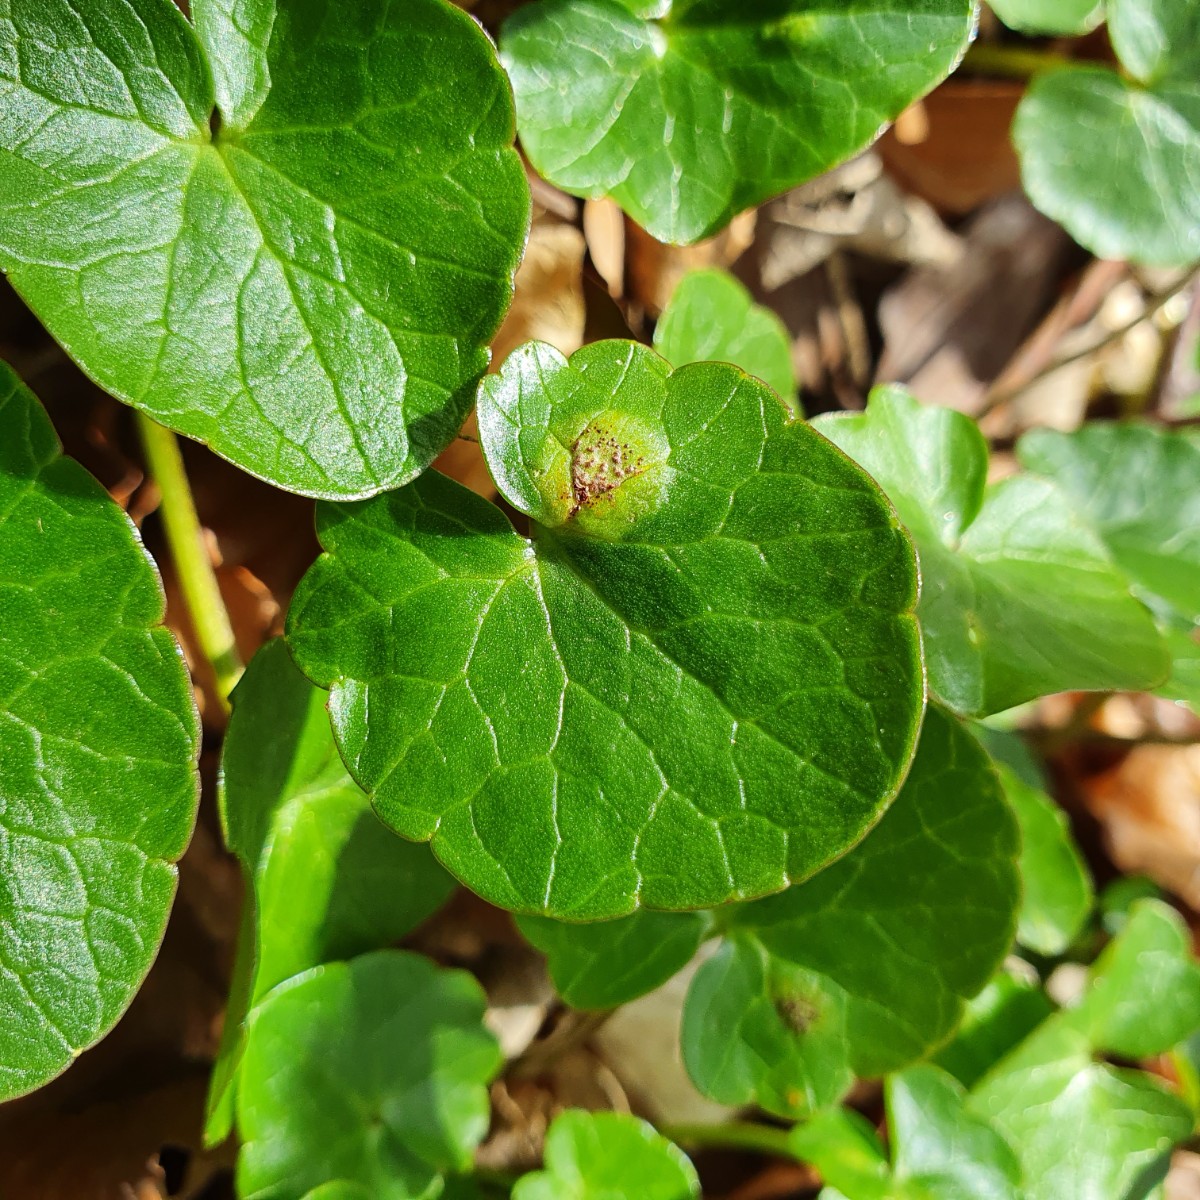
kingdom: Fungi
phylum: Basidiomycota
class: Pucciniomycetes
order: Pucciniales
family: Pucciniaceae
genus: Uromyces
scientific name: Uromyces ficariae
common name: vorterod-encellerust
